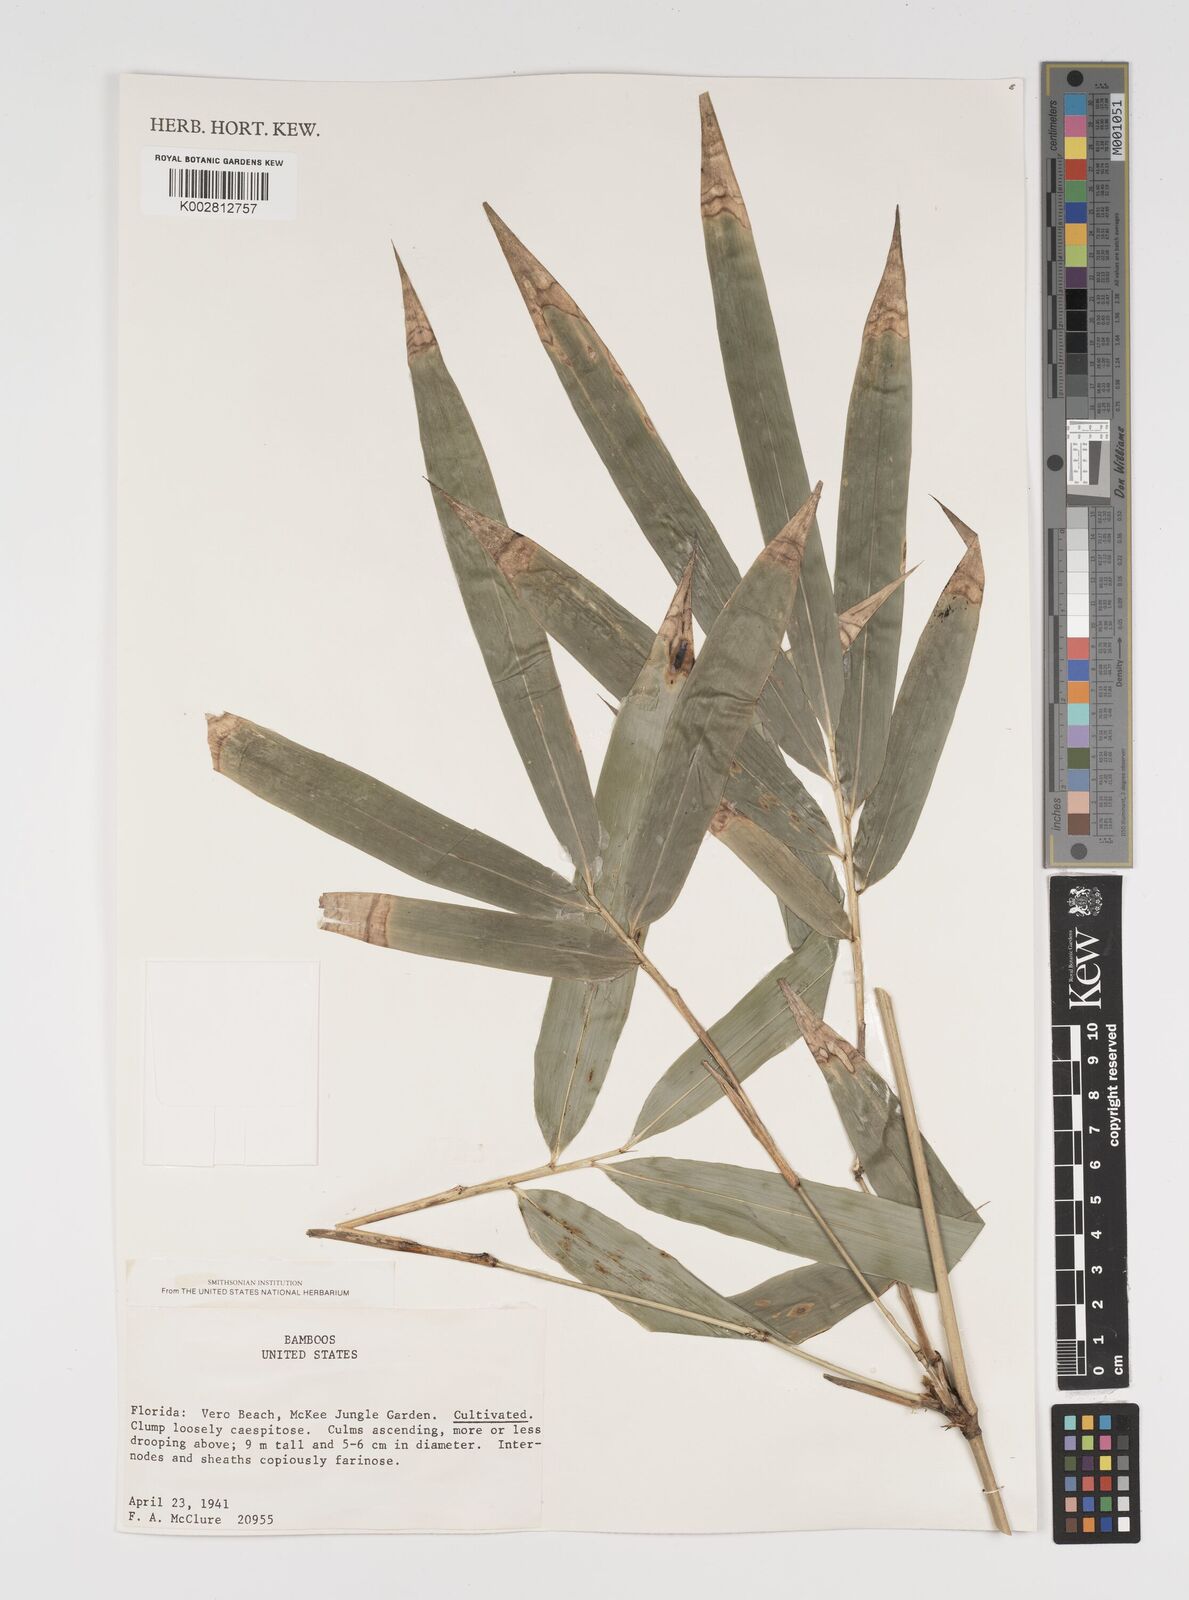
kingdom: Plantae
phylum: Tracheophyta
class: Liliopsida
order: Poales
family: Poaceae
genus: Arundinaria
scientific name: Arundinaria
